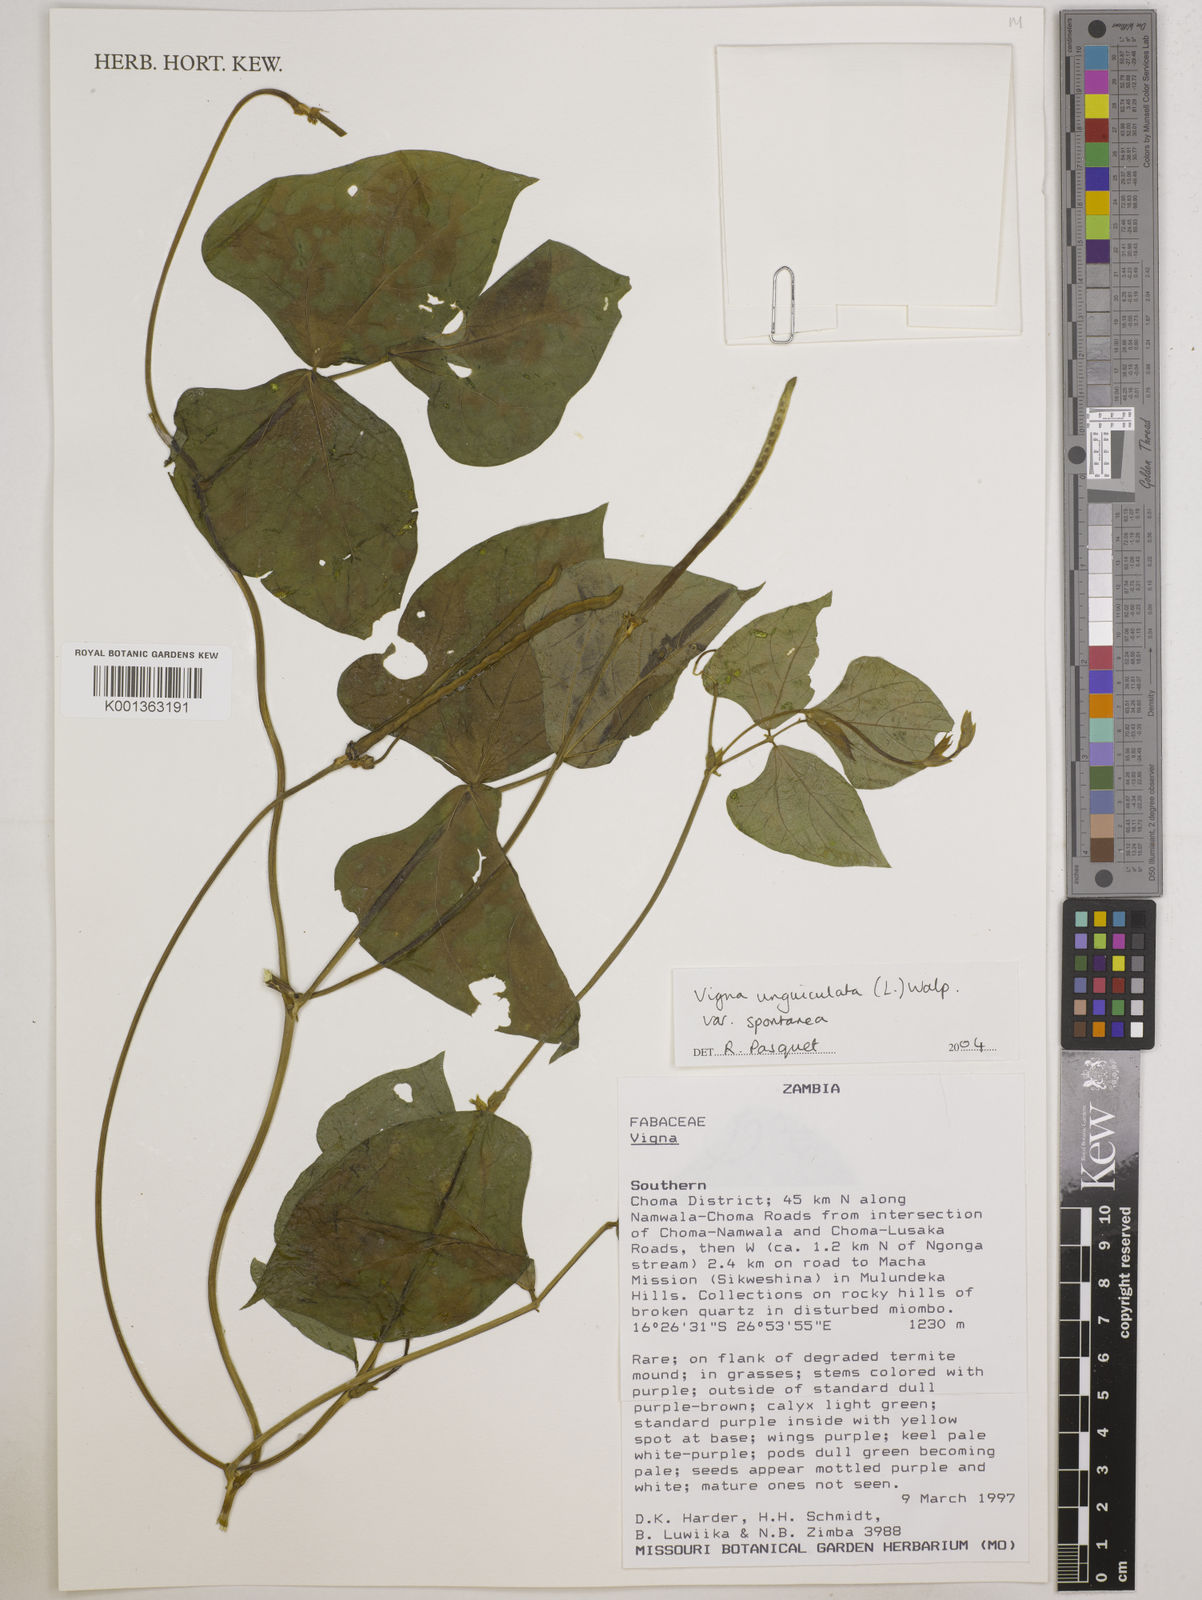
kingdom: Plantae
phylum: Tracheophyta
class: Magnoliopsida
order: Fabales
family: Fabaceae
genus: Vigna
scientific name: Vigna unguiculata
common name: Cowpea
